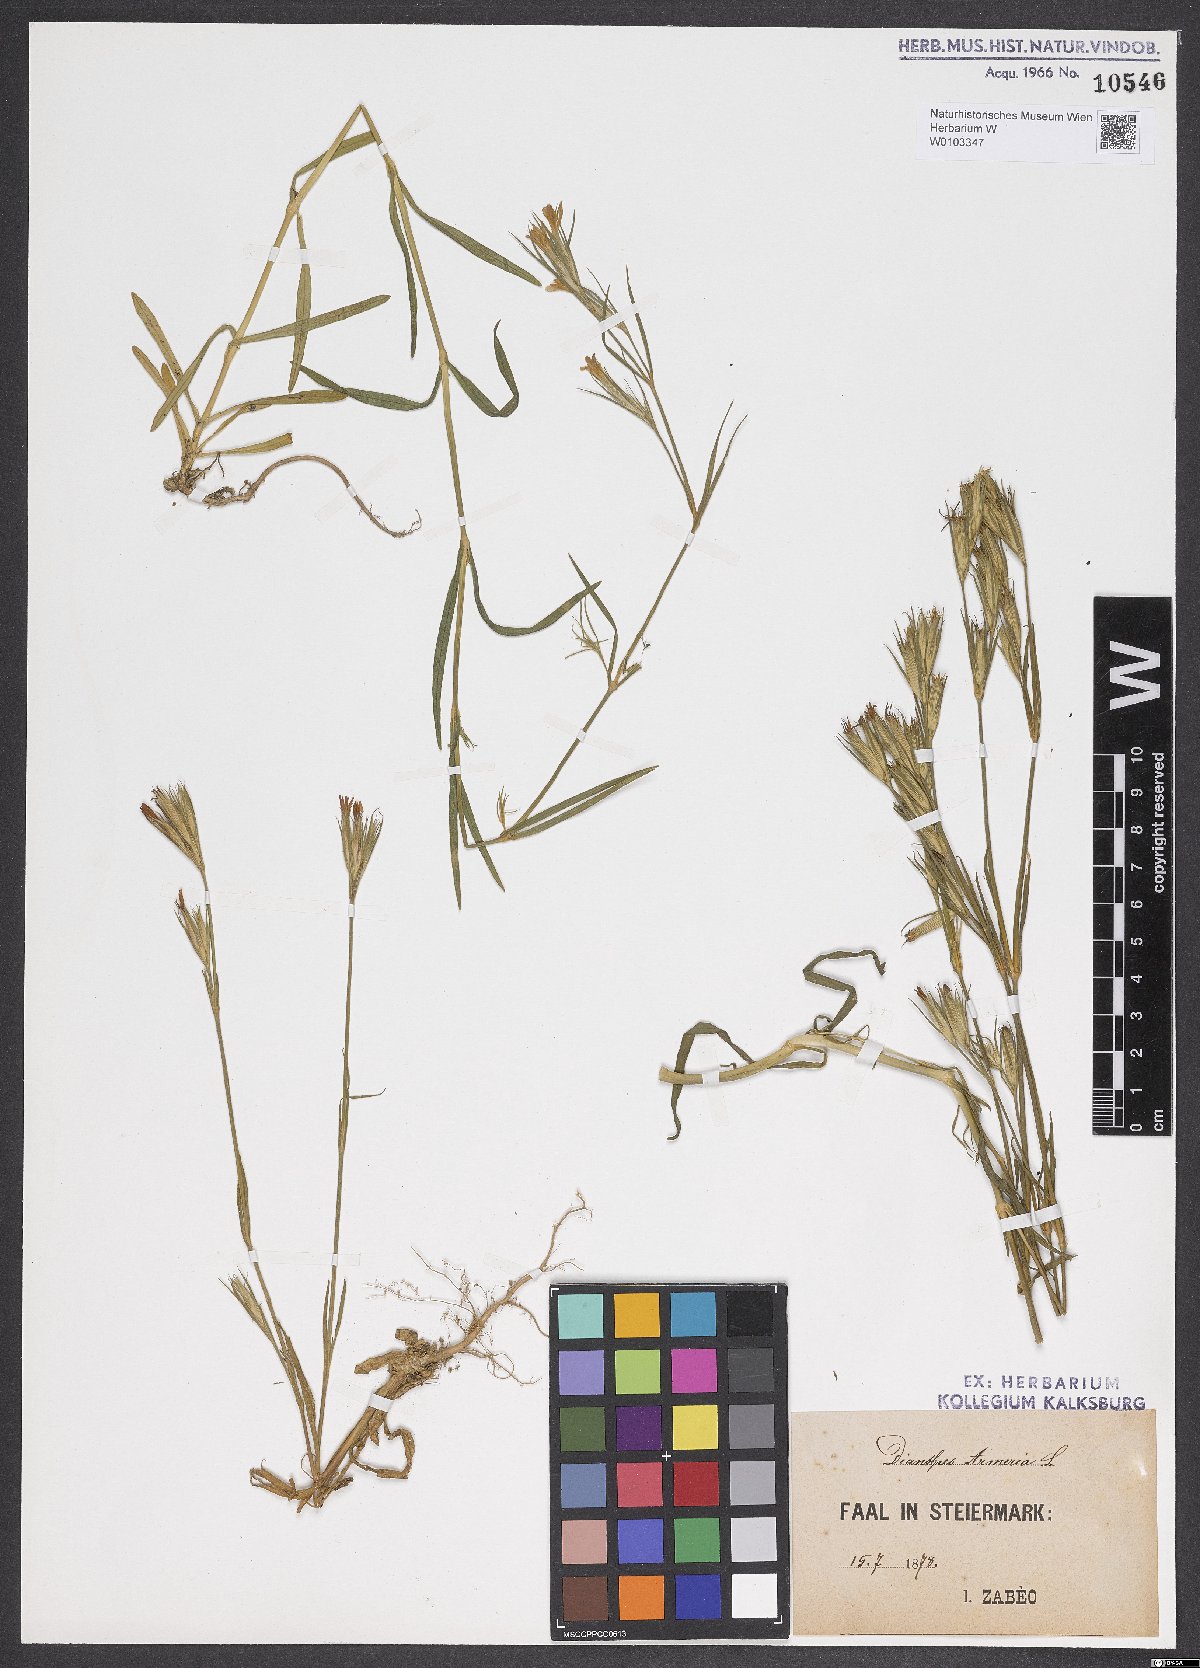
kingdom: Plantae
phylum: Tracheophyta
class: Magnoliopsida
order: Caryophyllales
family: Caryophyllaceae
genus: Dianthus
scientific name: Dianthus armeria
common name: Deptford pink
